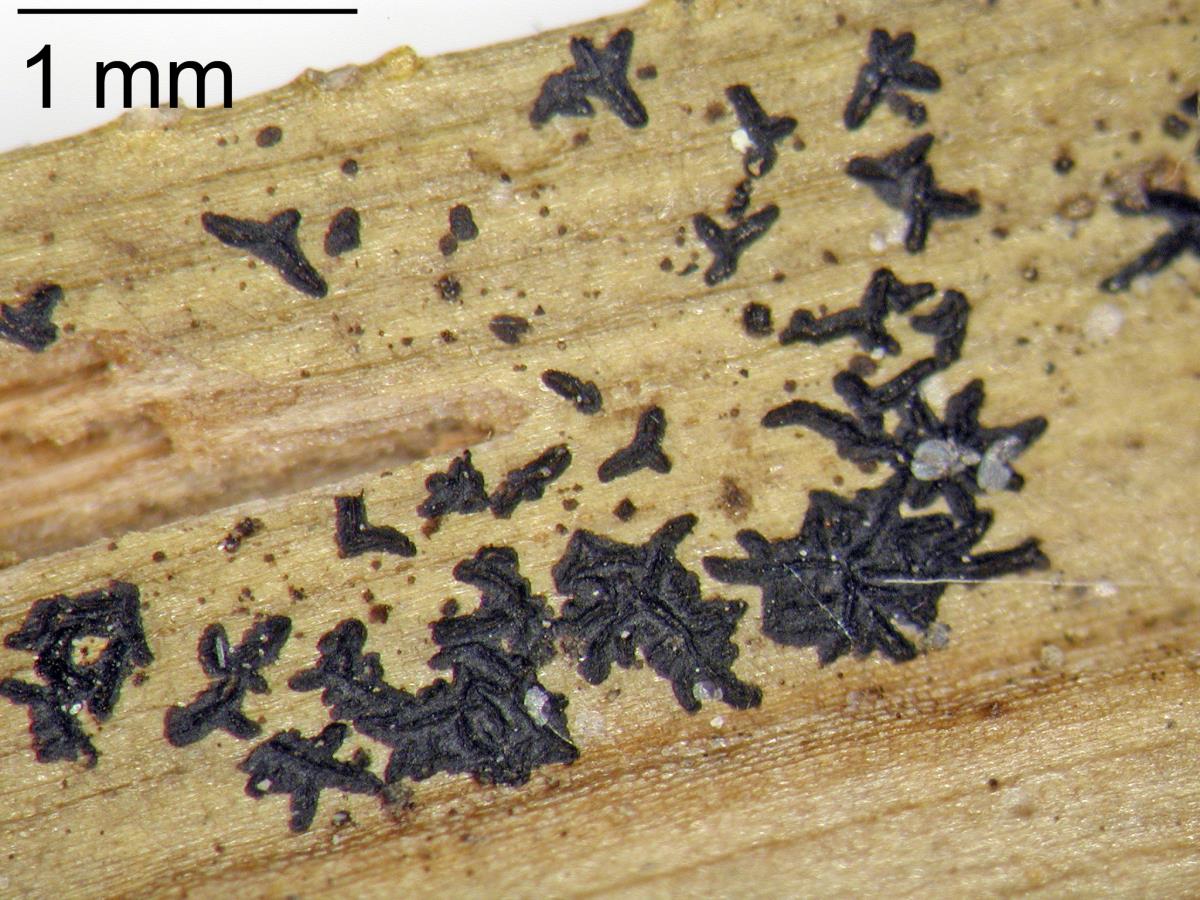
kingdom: Fungi
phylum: Ascomycota
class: Dothideomycetes
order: Asterinales
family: Asterinaceae
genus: Morenoina
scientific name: Morenoina paludosa
